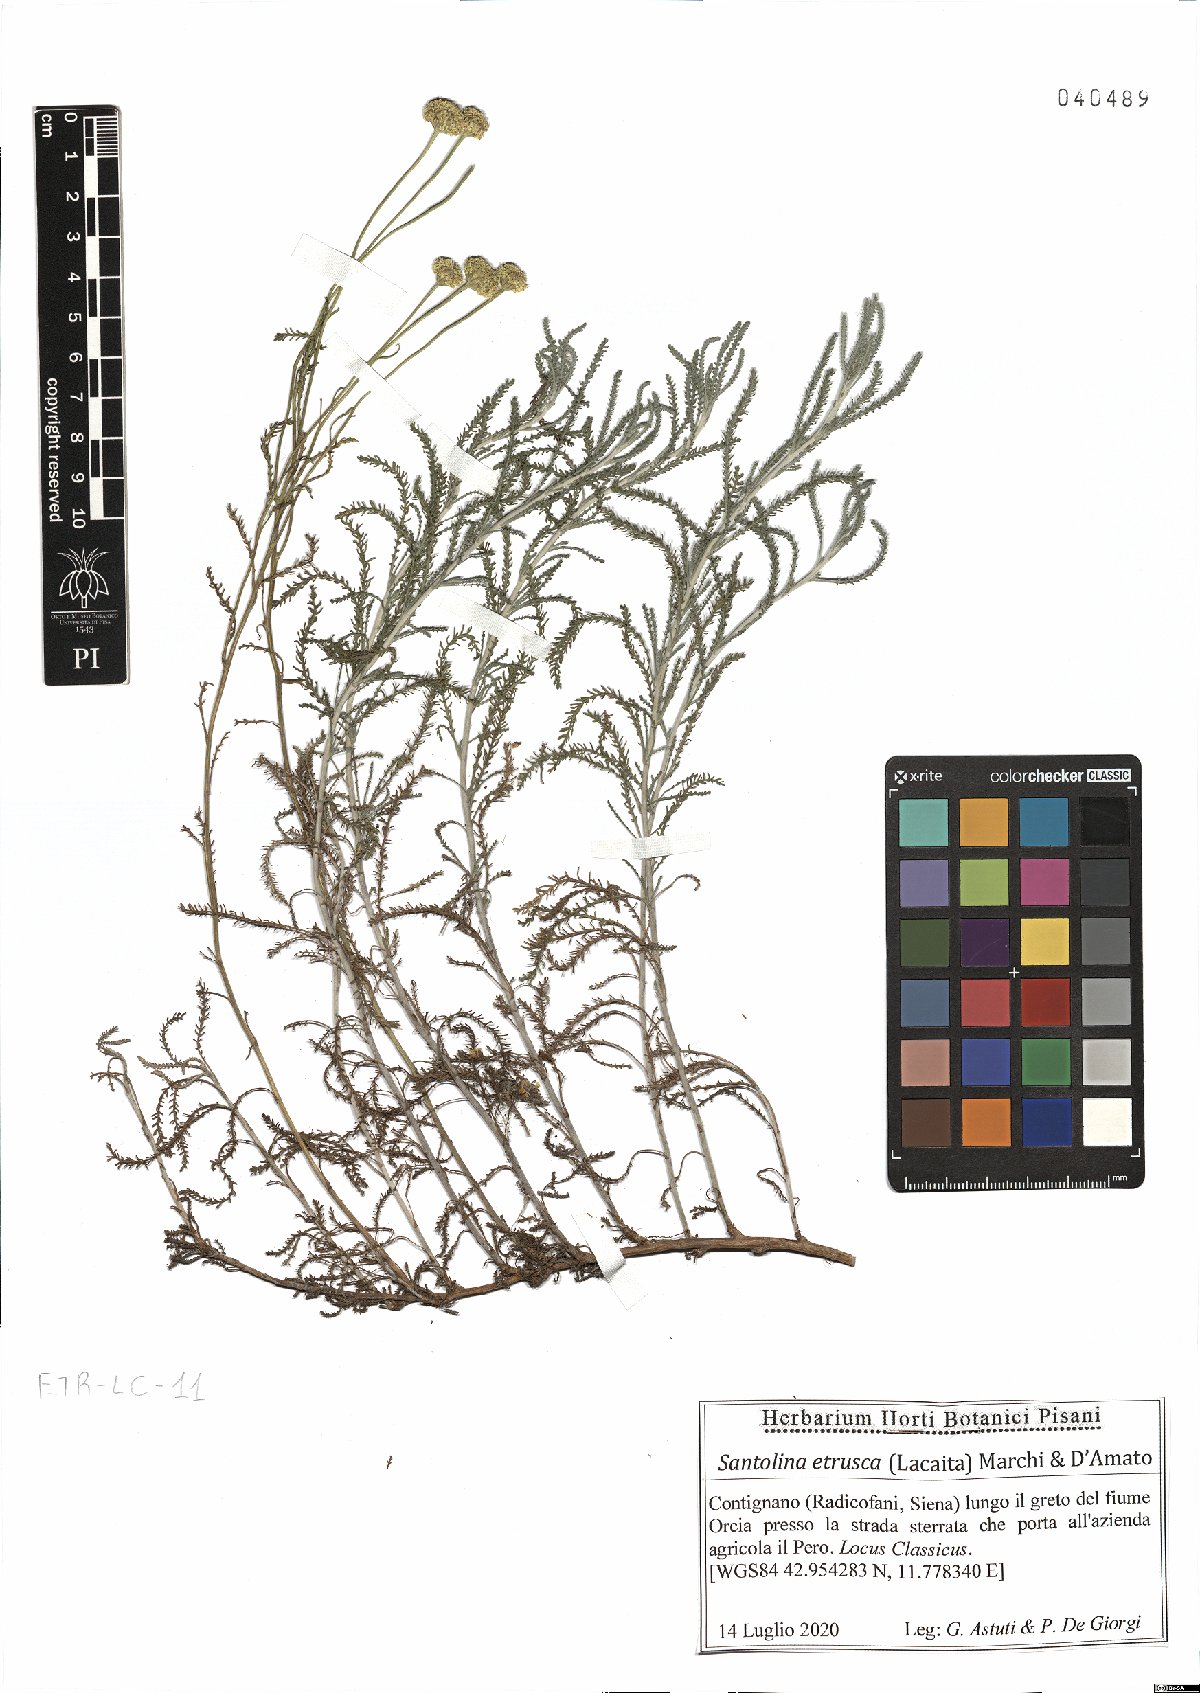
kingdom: Plantae
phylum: Tracheophyta
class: Magnoliopsida
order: Asterales
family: Asteraceae
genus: Santolina
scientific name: Santolina etrusca
